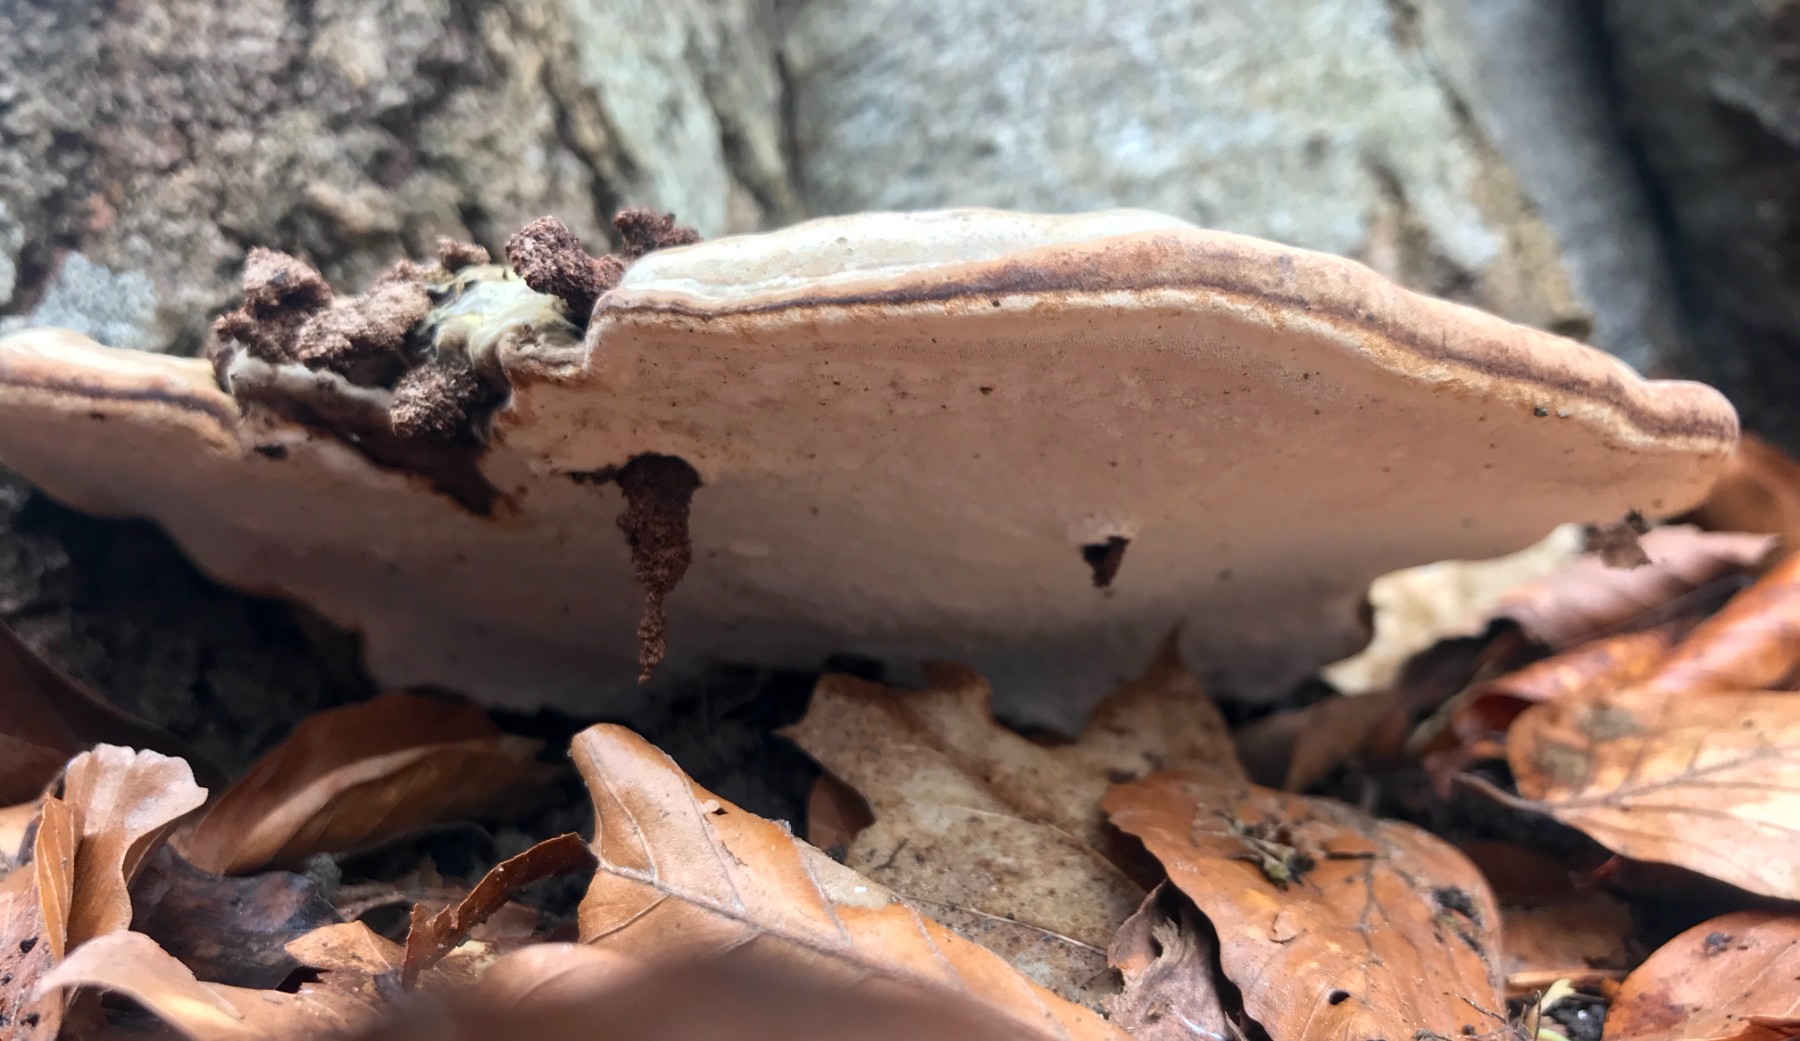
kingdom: Fungi
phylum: Basidiomycota
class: Agaricomycetes
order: Polyporales
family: Polyporaceae
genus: Ganoderma
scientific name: Ganoderma applanatum
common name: flad lakporesvamp
